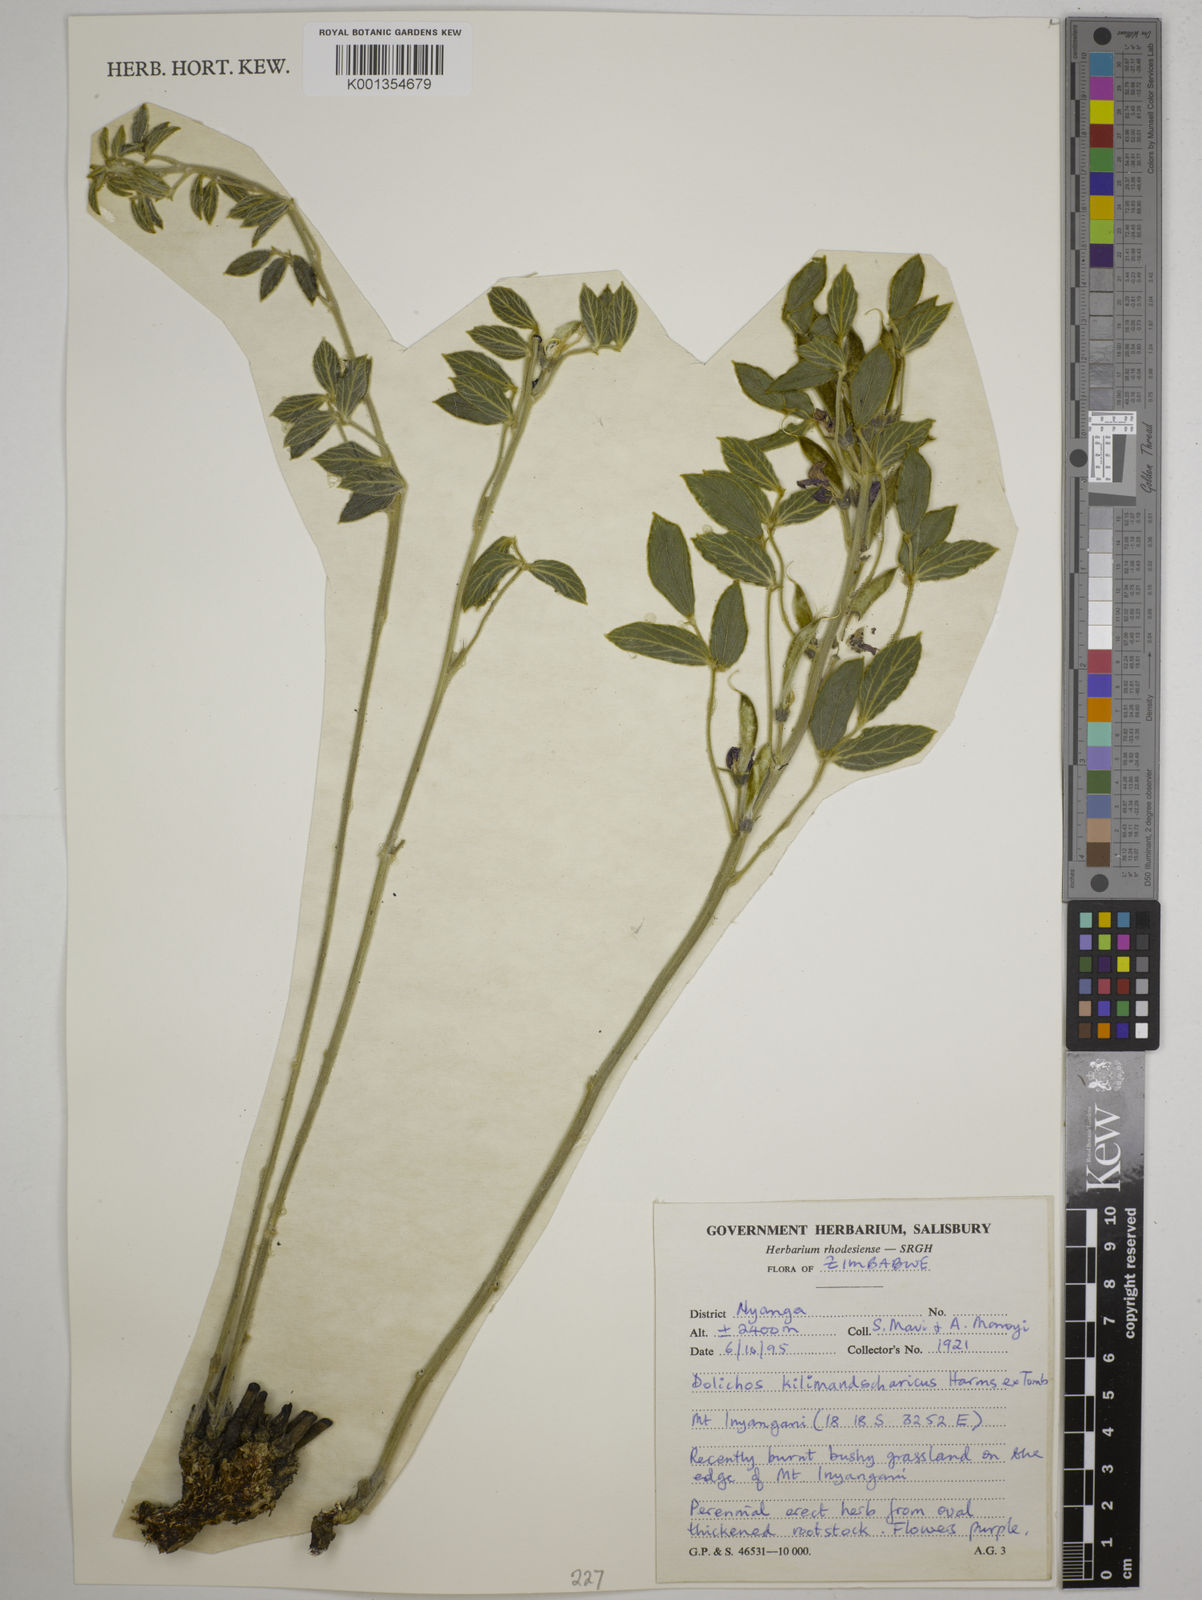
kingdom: Plantae
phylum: Tracheophyta
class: Magnoliopsida
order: Fabales
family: Fabaceae
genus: Dolichos
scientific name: Dolichos kilimandscharicus
